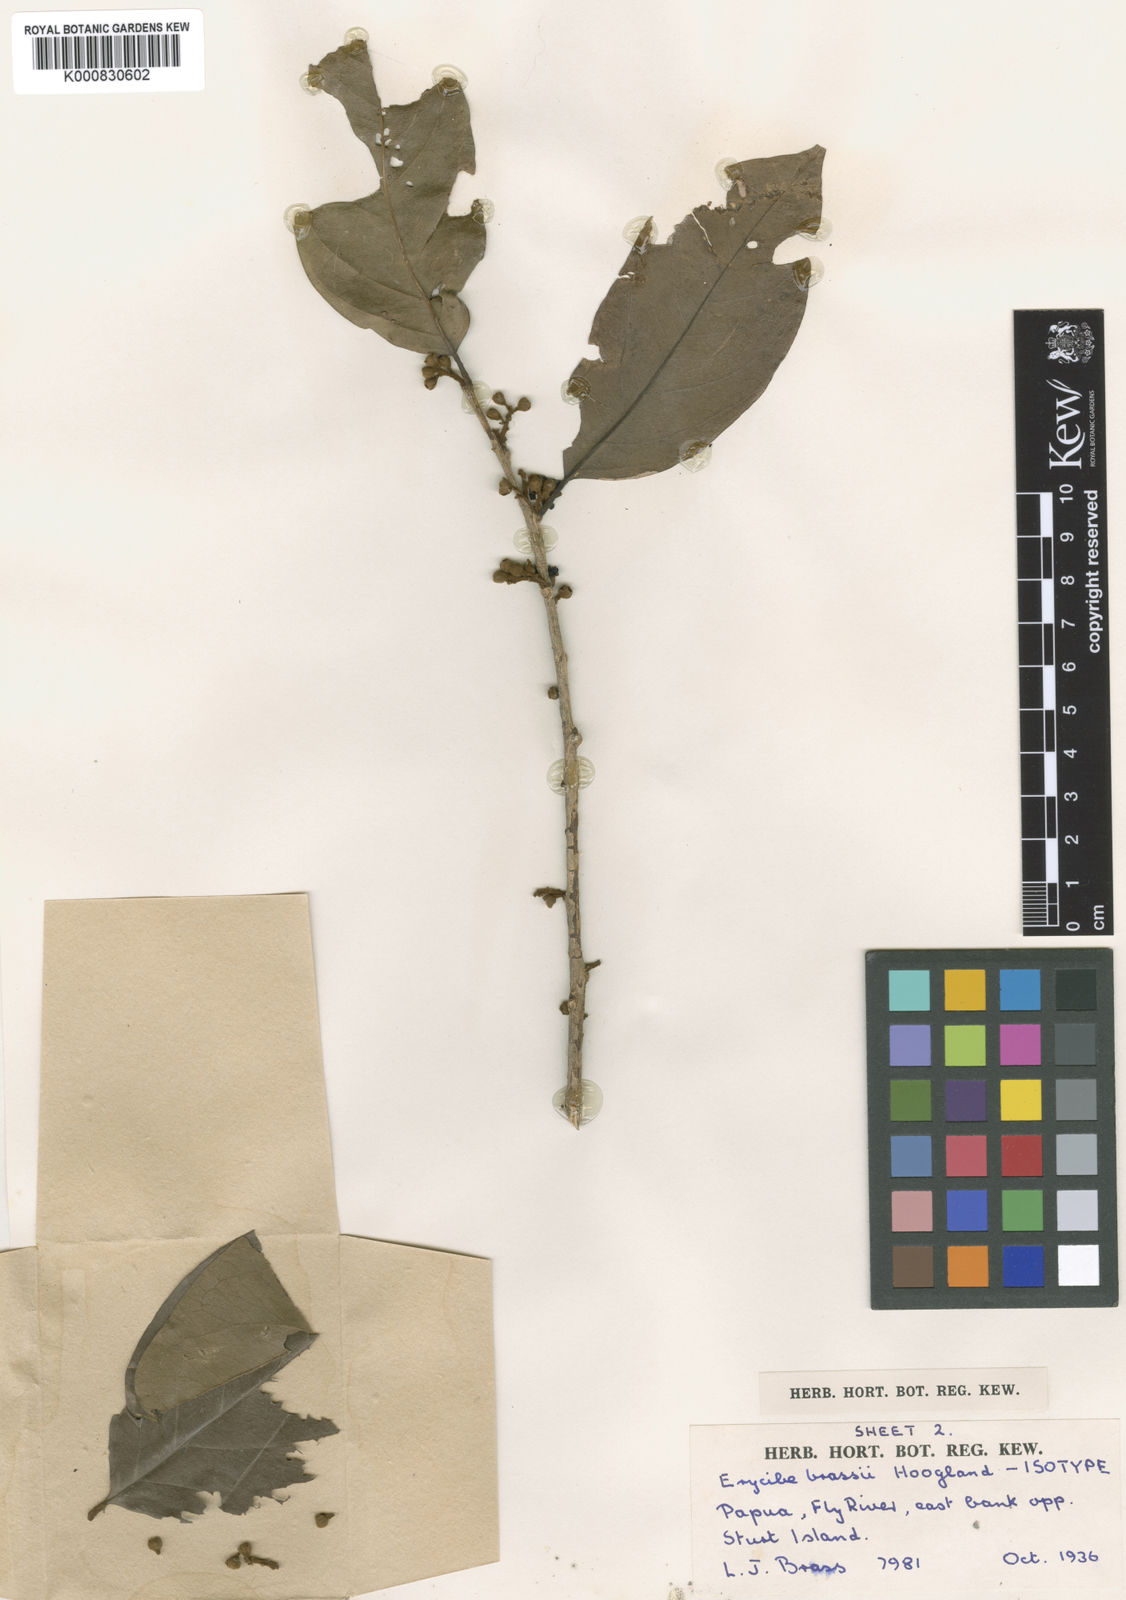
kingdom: Plantae
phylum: Tracheophyta
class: Magnoliopsida
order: Solanales
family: Convolvulaceae
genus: Erycibe
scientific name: Erycibe brassii
